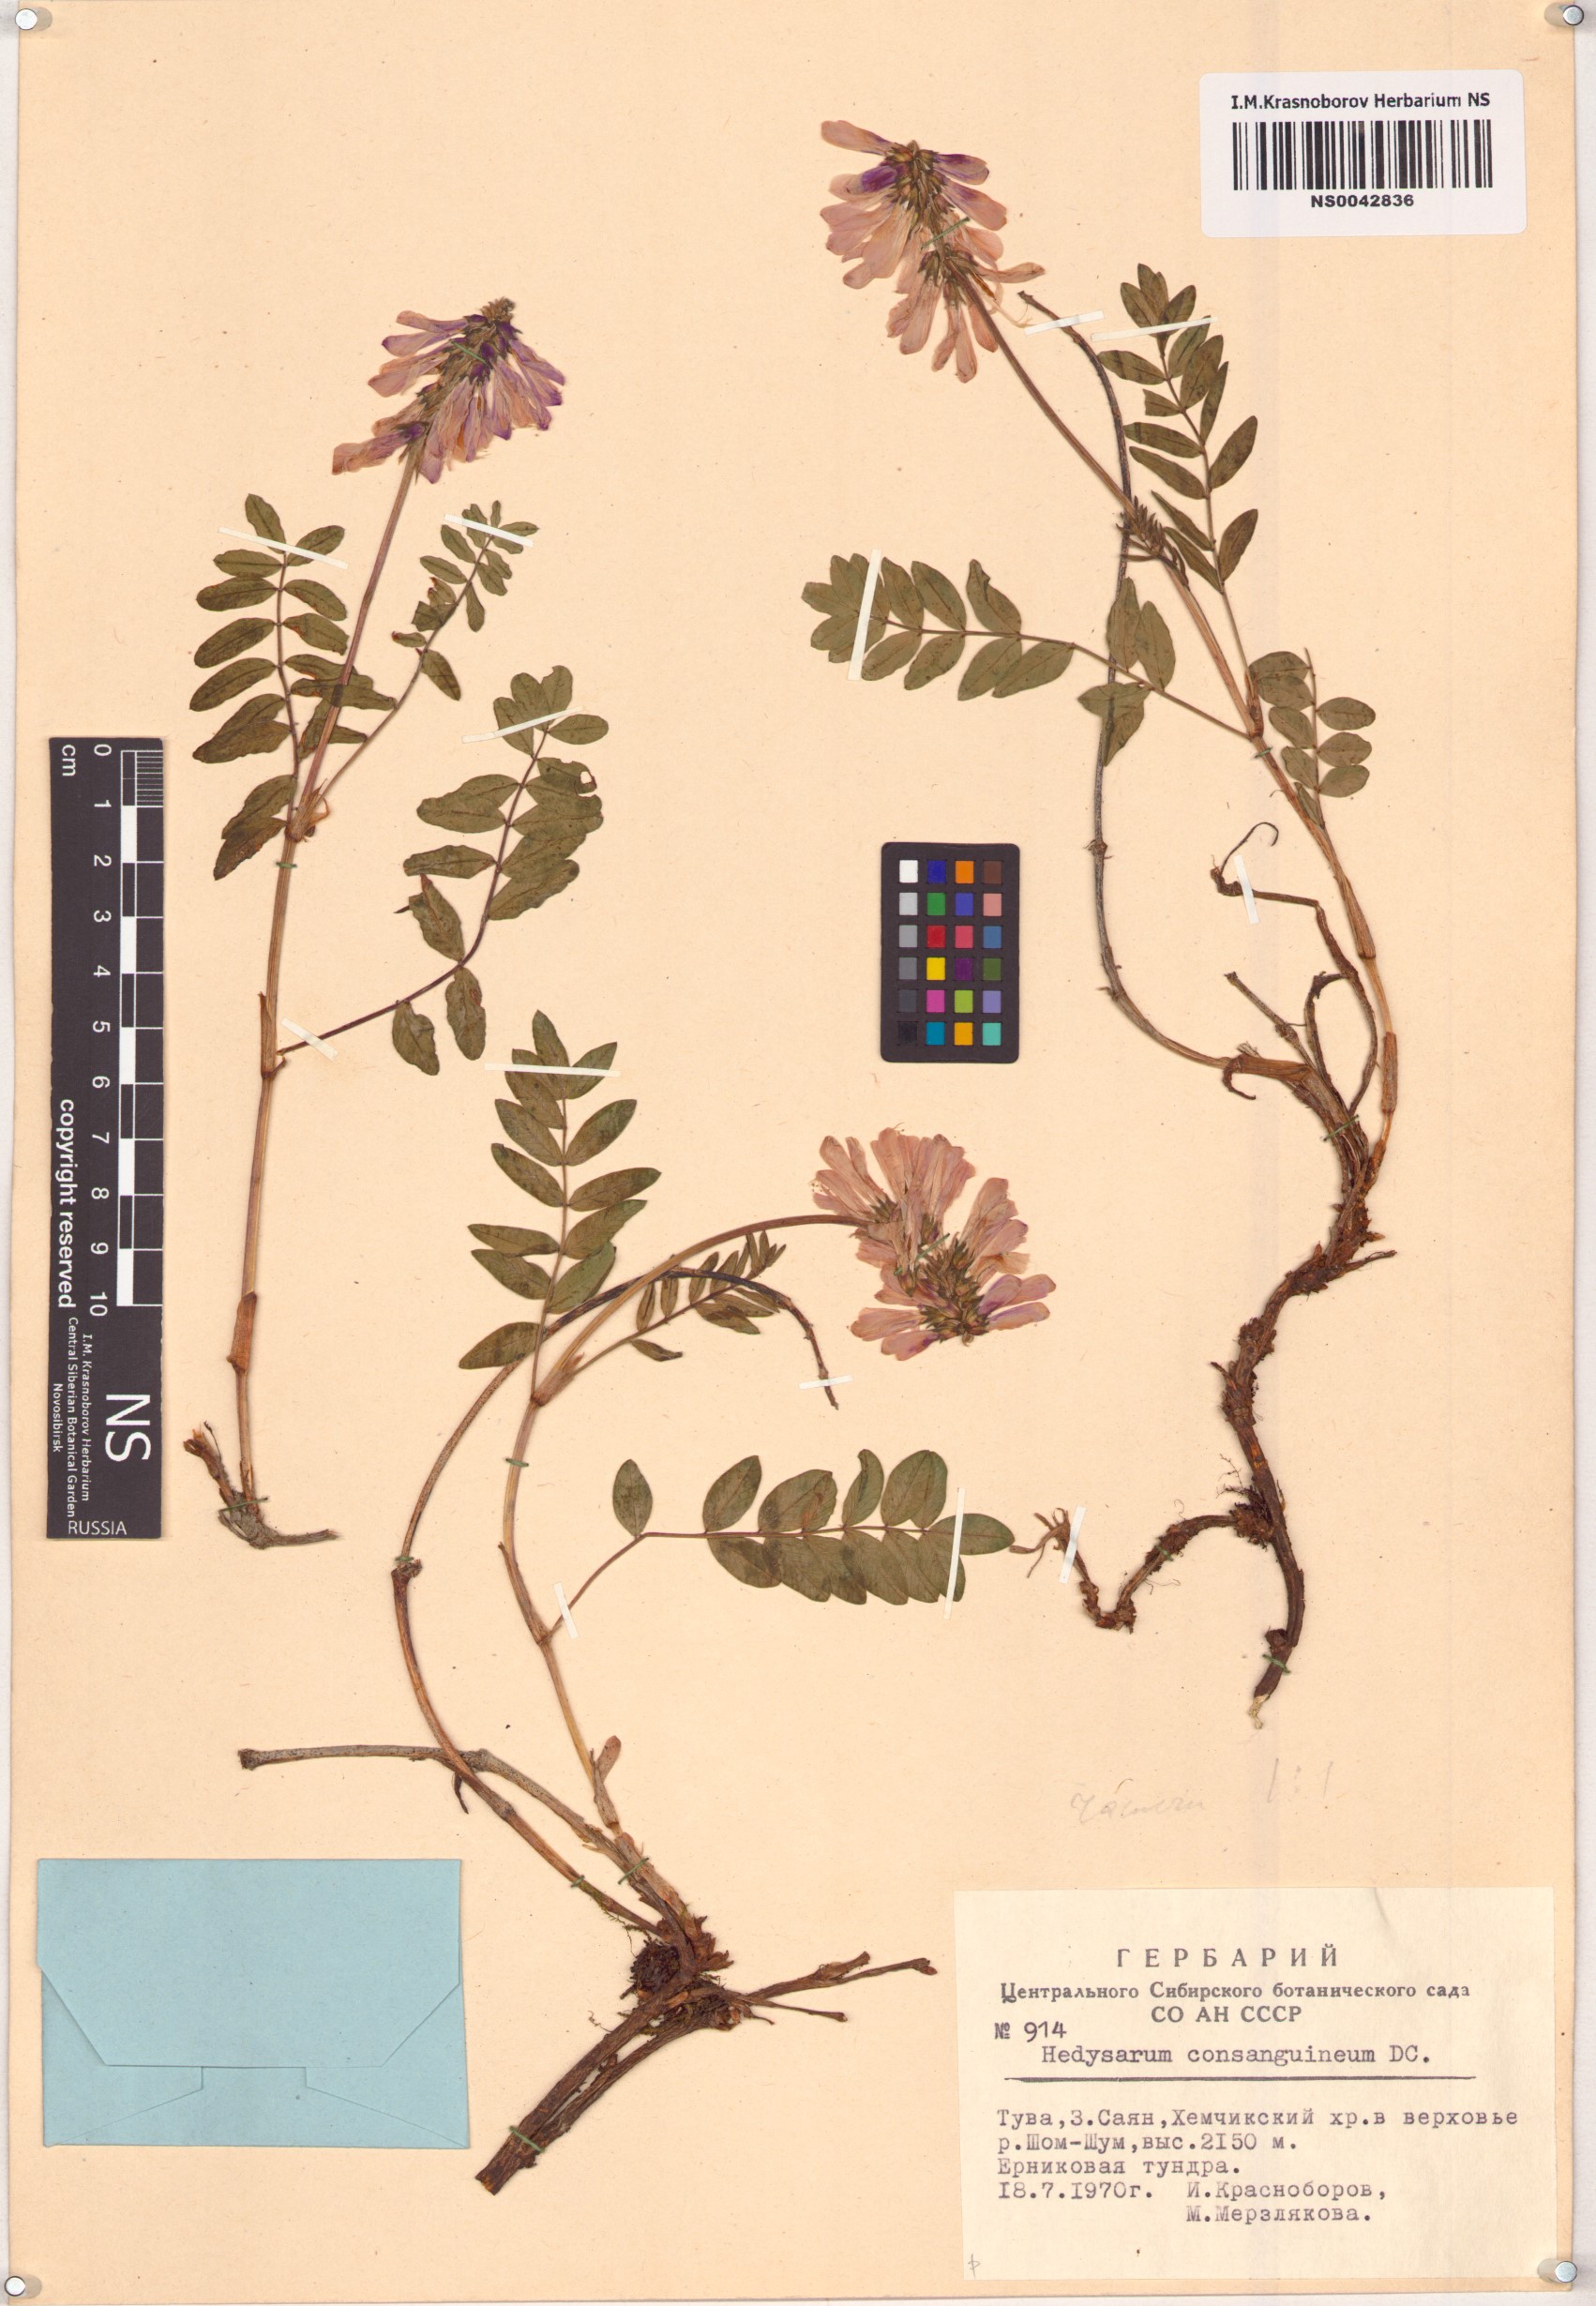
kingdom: Plantae
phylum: Tracheophyta
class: Magnoliopsida
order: Fabales
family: Fabaceae
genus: Hedysarum
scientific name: Hedysarum consanguineum
